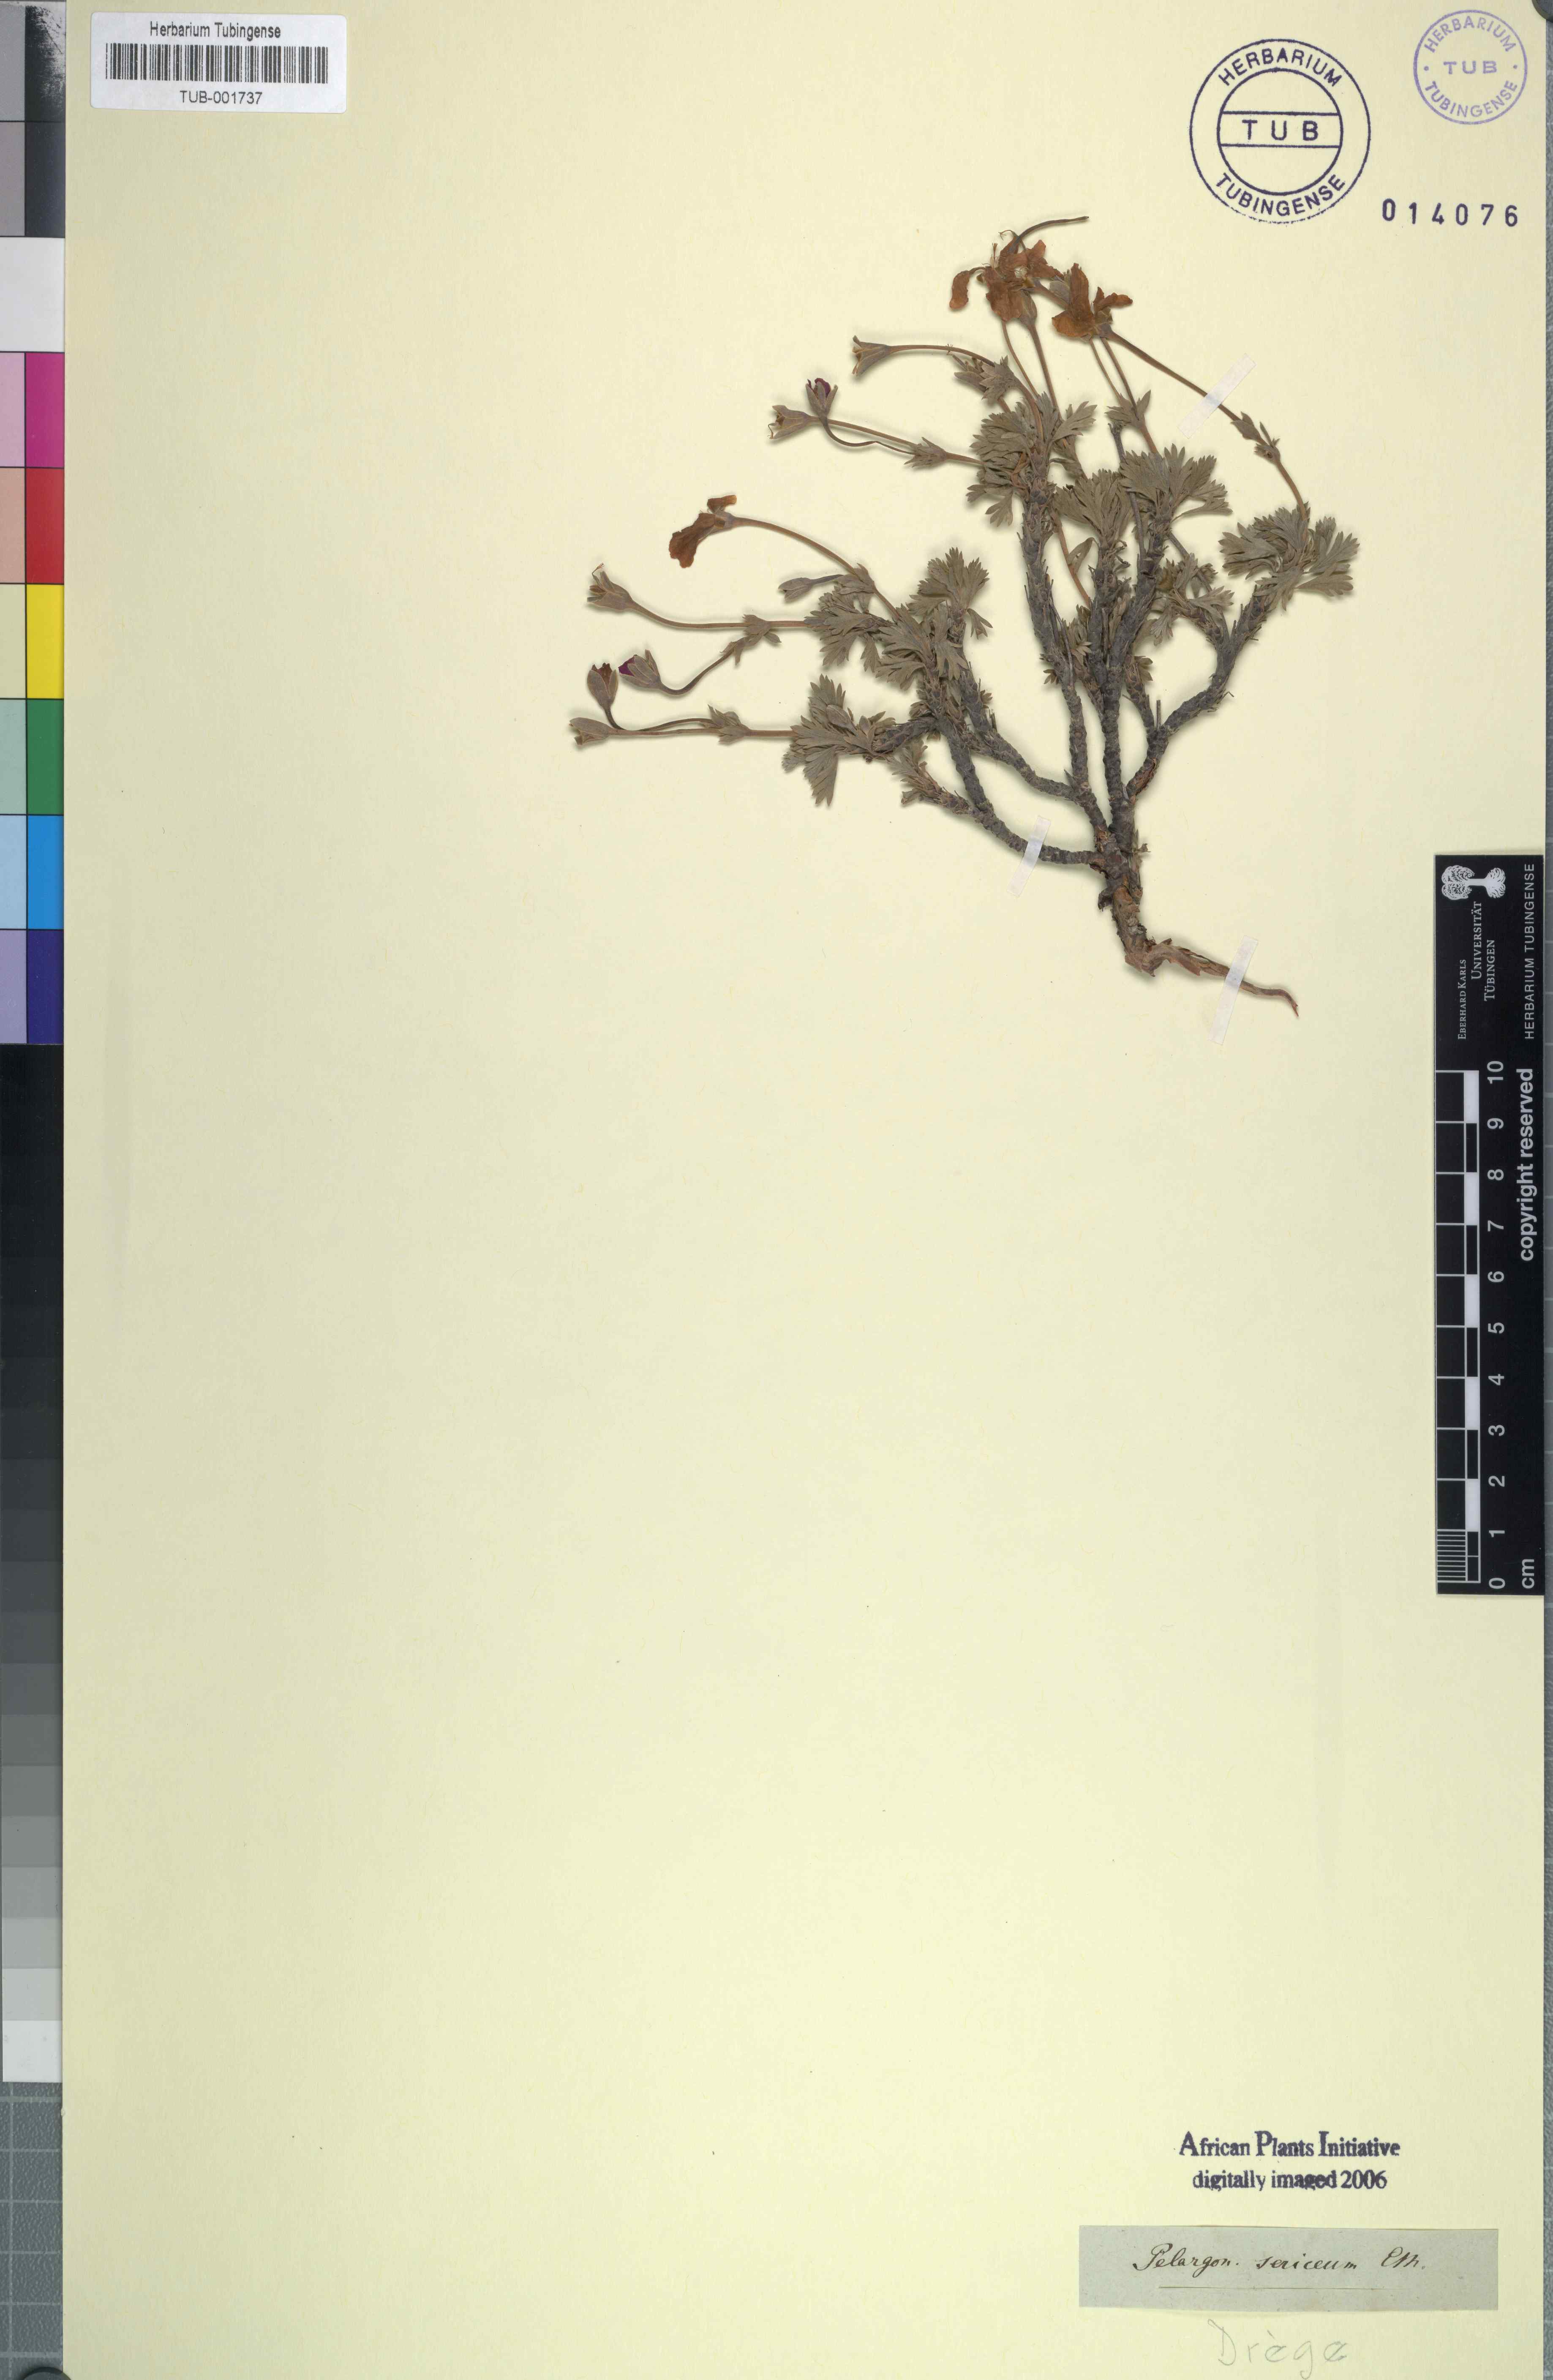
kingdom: Plantae
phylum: Tracheophyta
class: Magnoliopsida
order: Geraniales
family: Geraniaceae
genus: Pelargonium
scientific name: Pelargonium sericifolium
